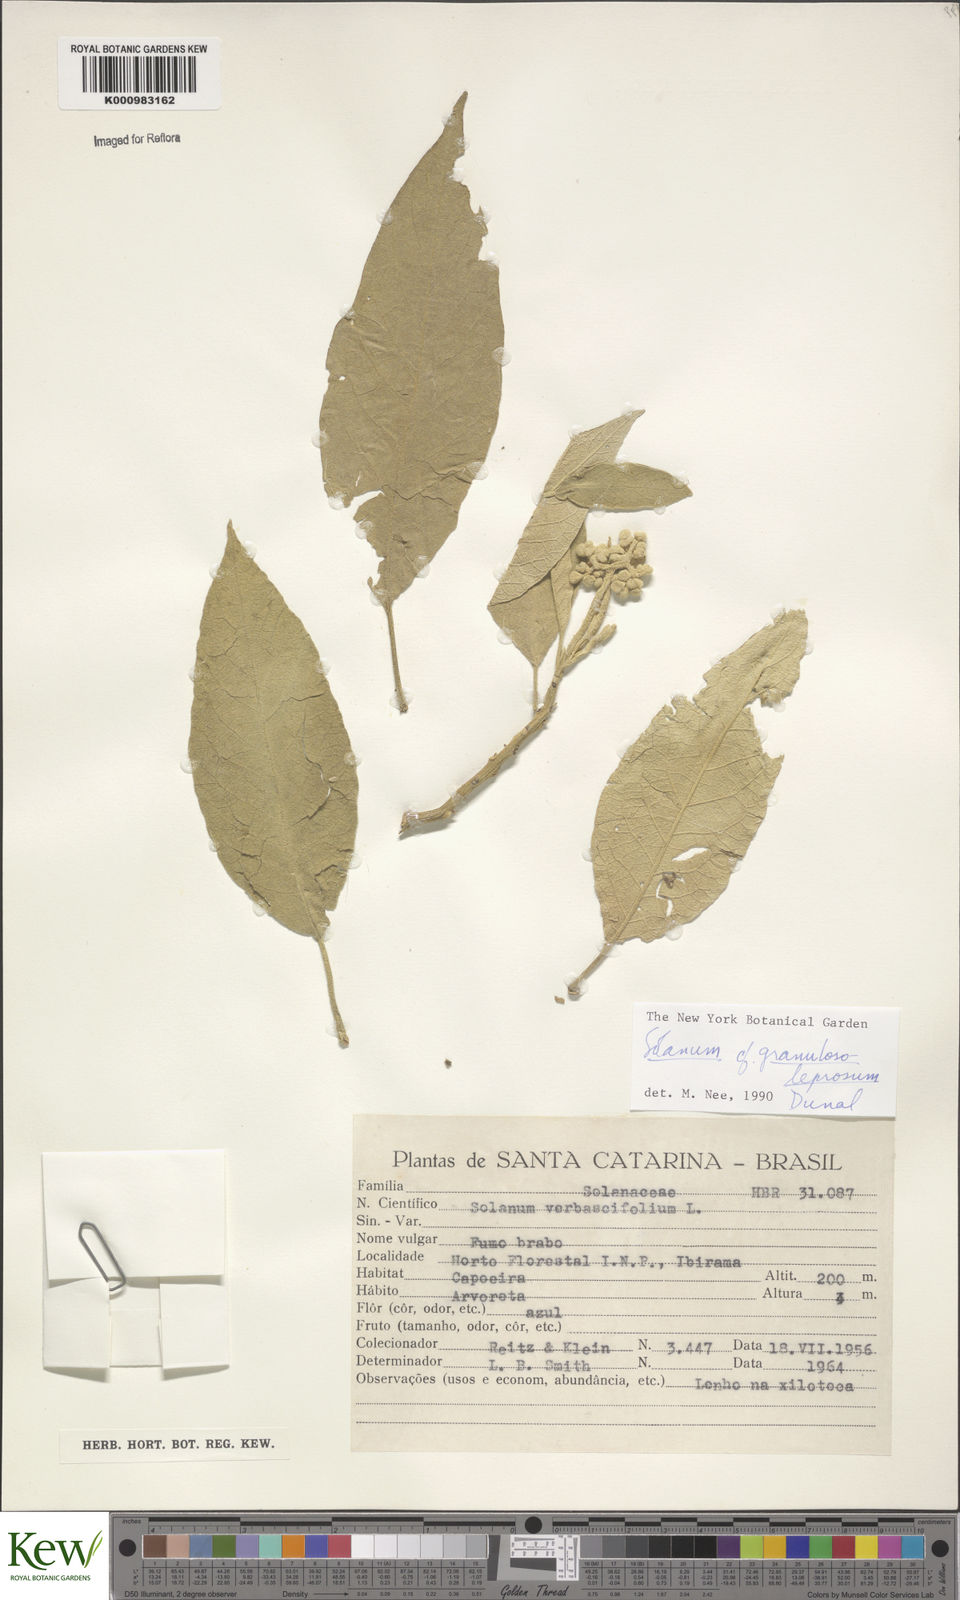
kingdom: Plantae
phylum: Tracheophyta
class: Magnoliopsida
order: Solanales
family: Solanaceae
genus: Solanum
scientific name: Solanum granulosoleprosum
